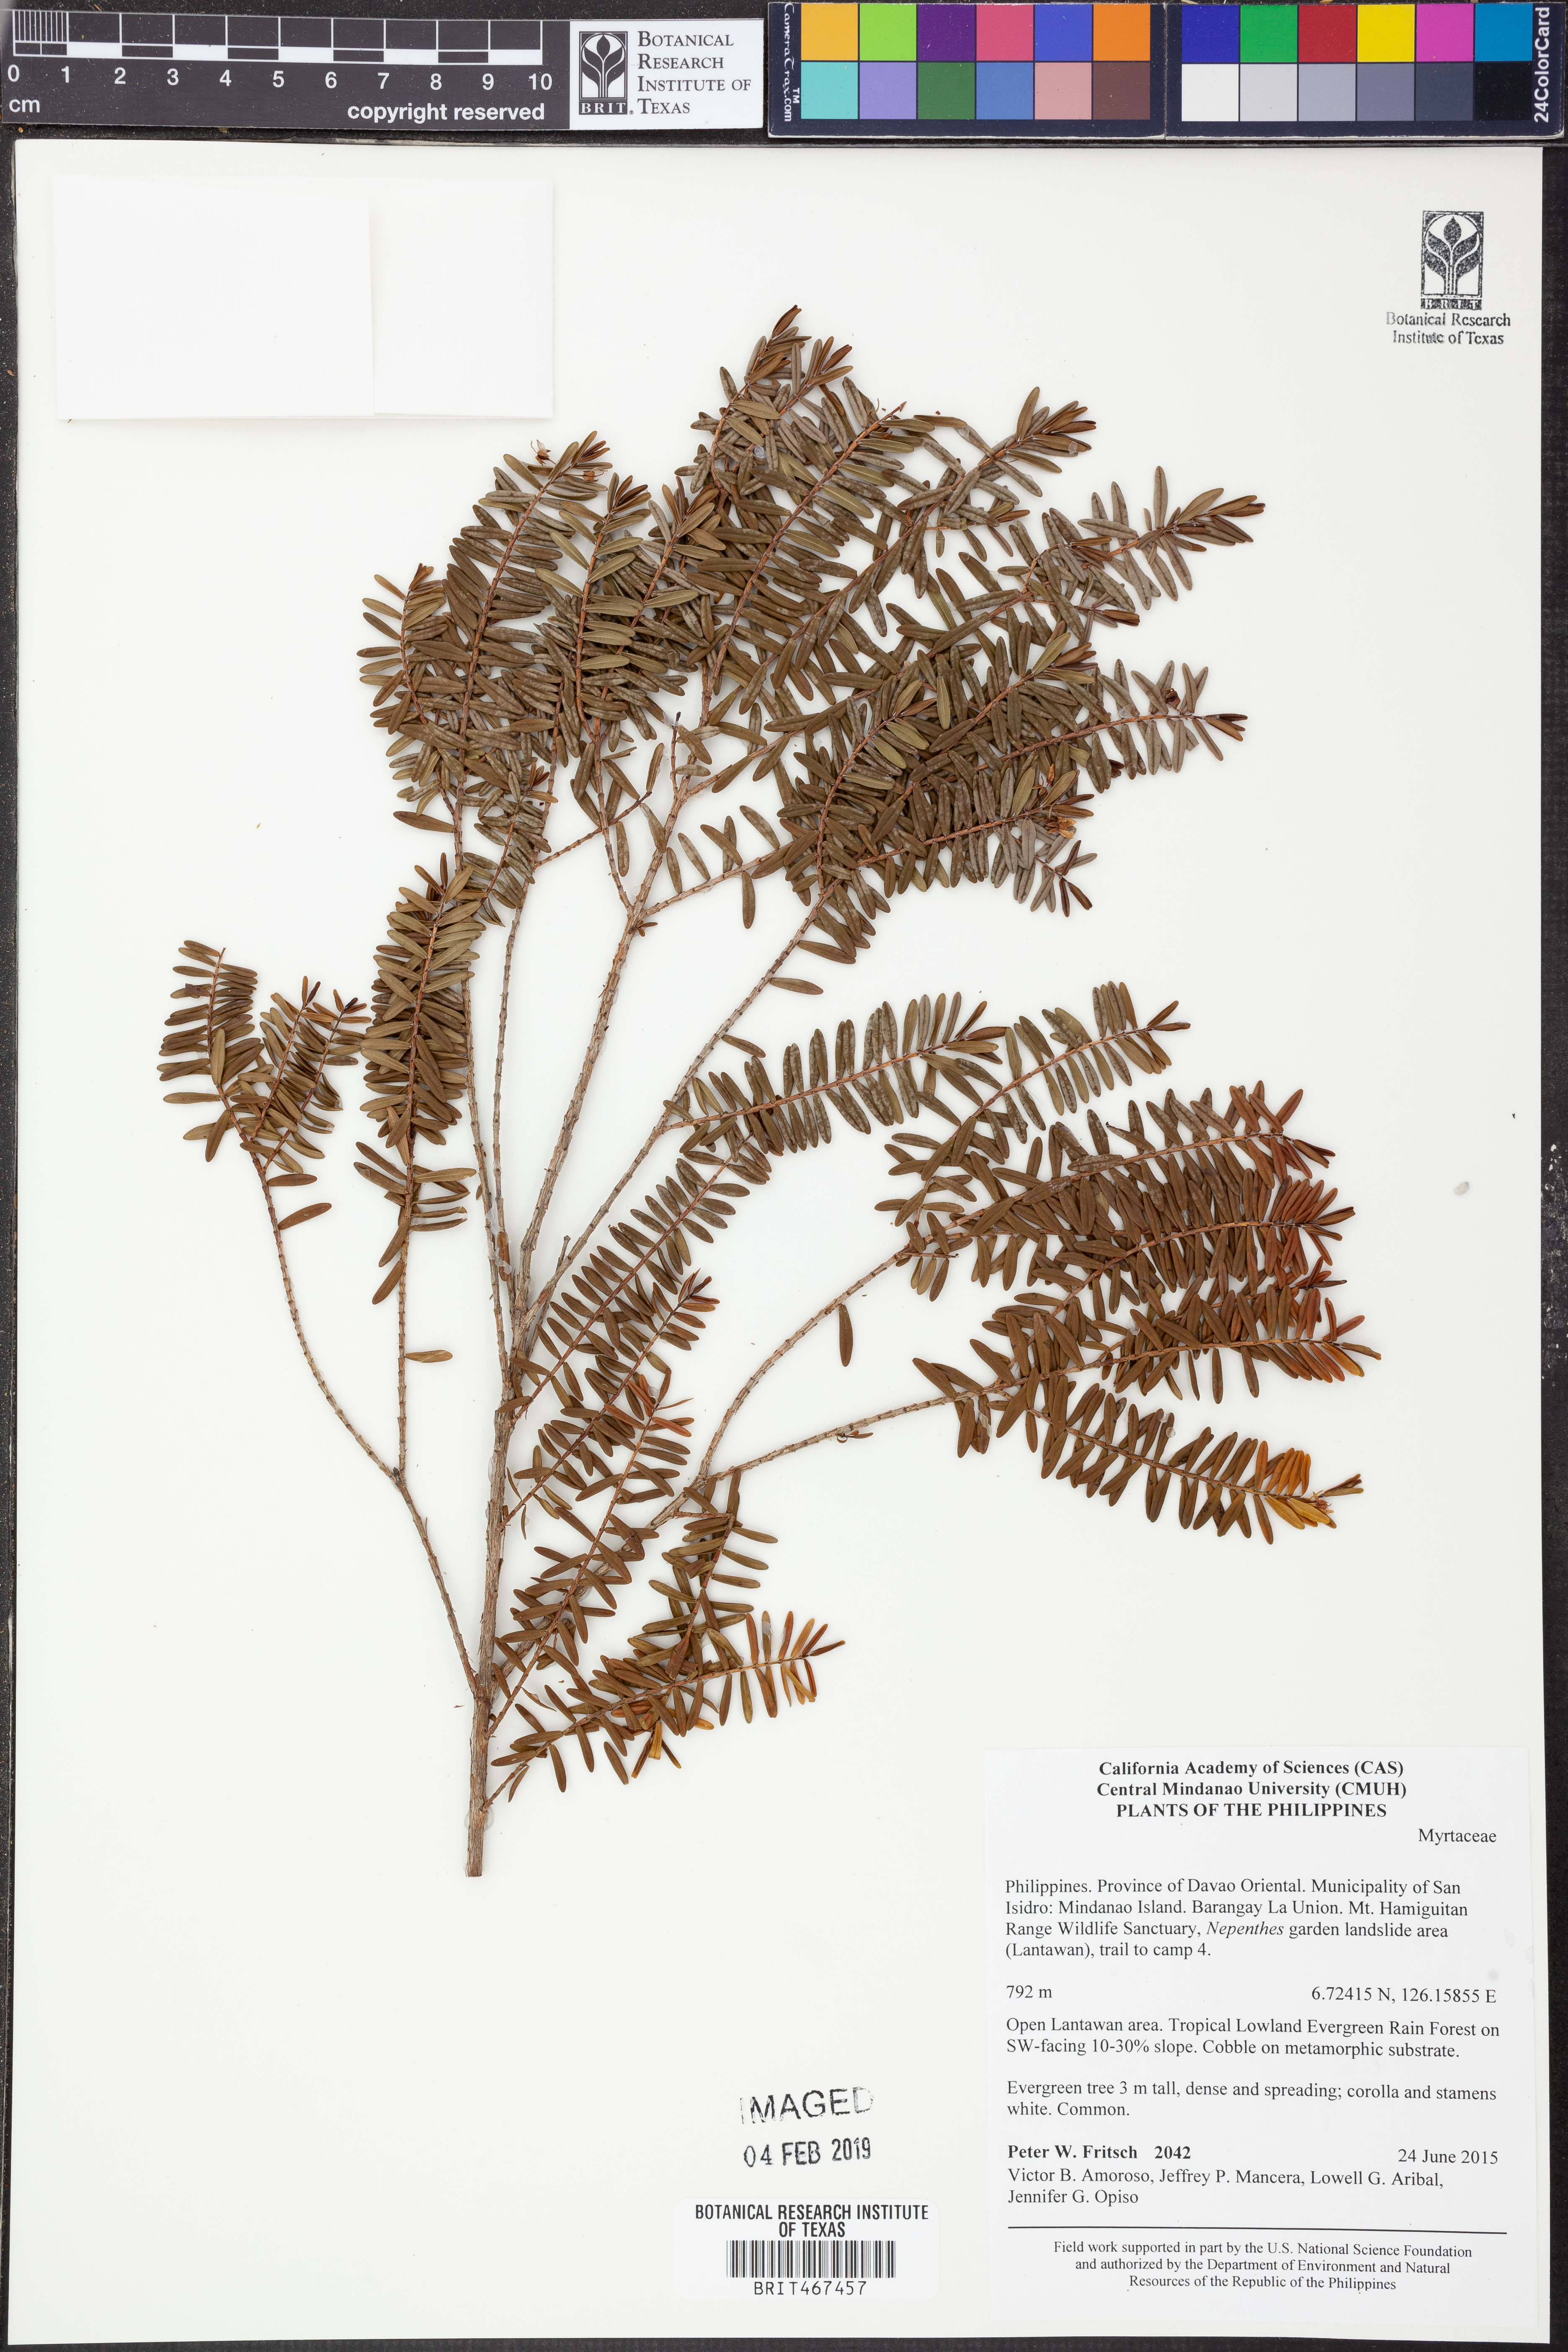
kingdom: Plantae
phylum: Tracheophyta
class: Magnoliopsida
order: Myrtales
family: Myrtaceae
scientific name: Myrtaceae
